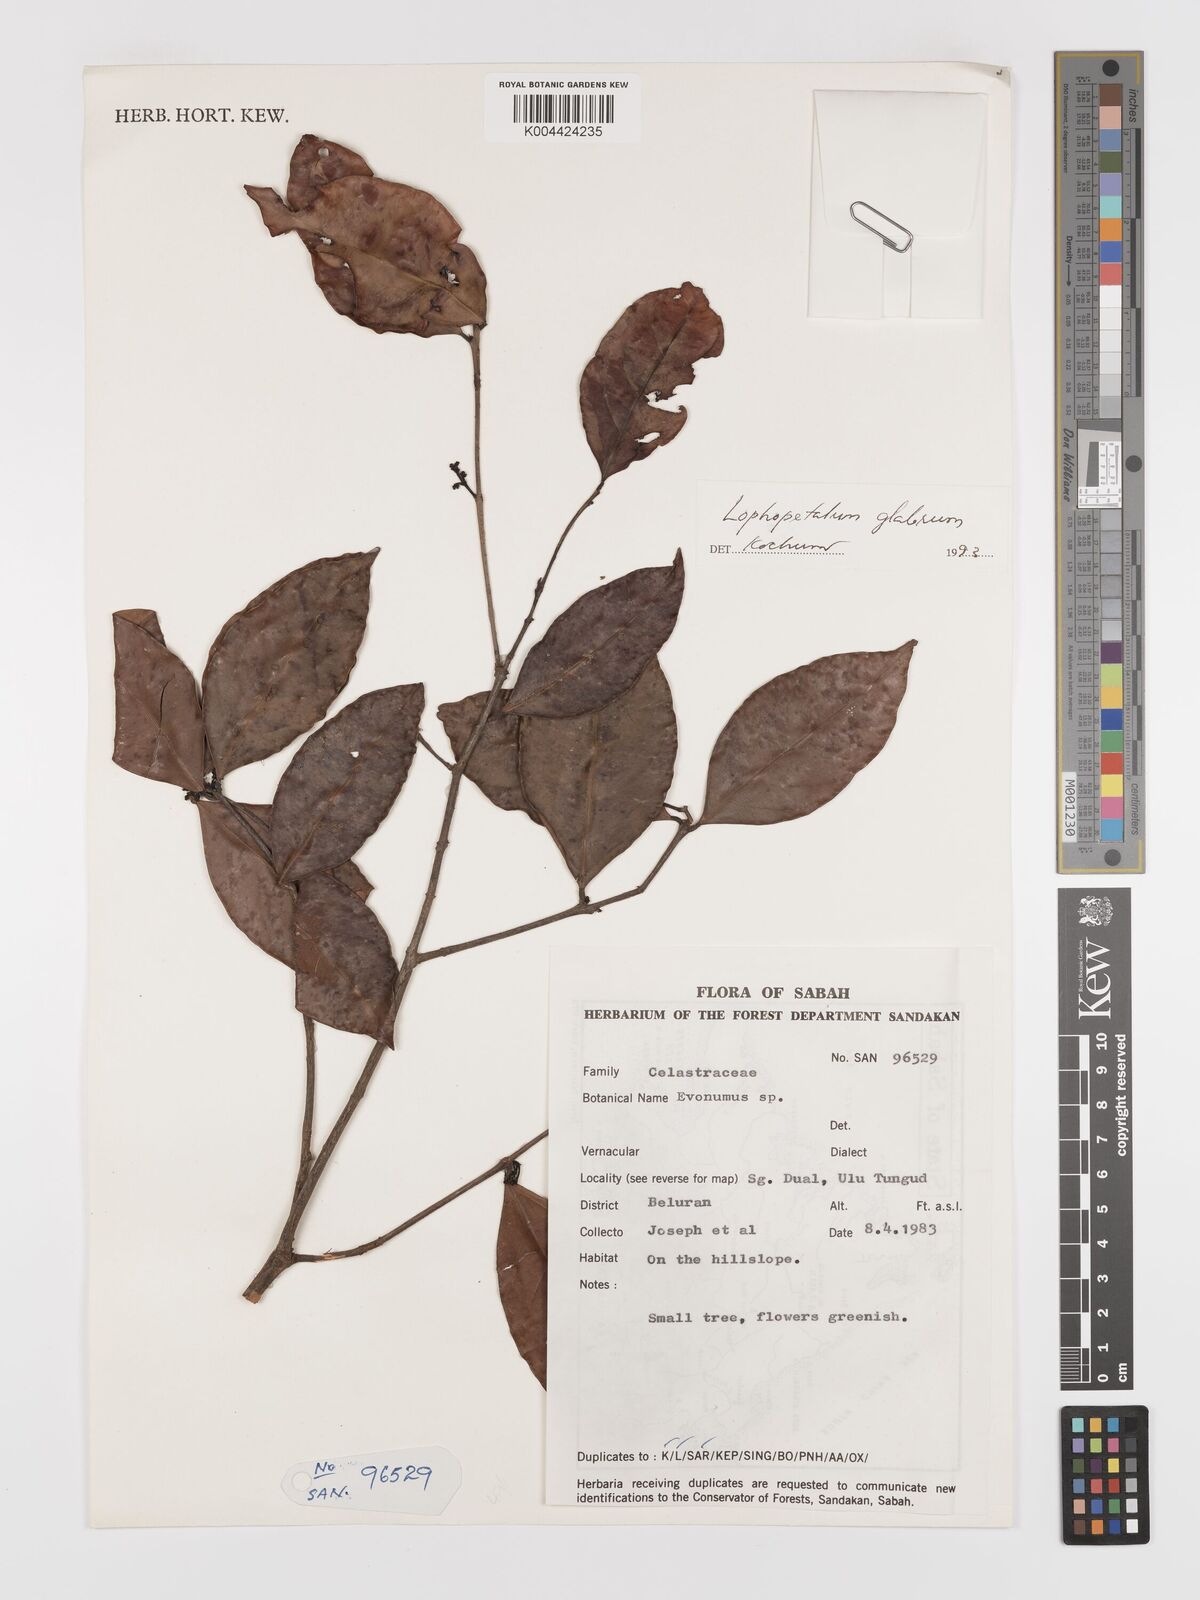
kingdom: Plantae
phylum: Tracheophyta
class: Magnoliopsida
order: Celastrales
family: Celastraceae
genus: Lophopetalum
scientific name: Lophopetalum glabrum
